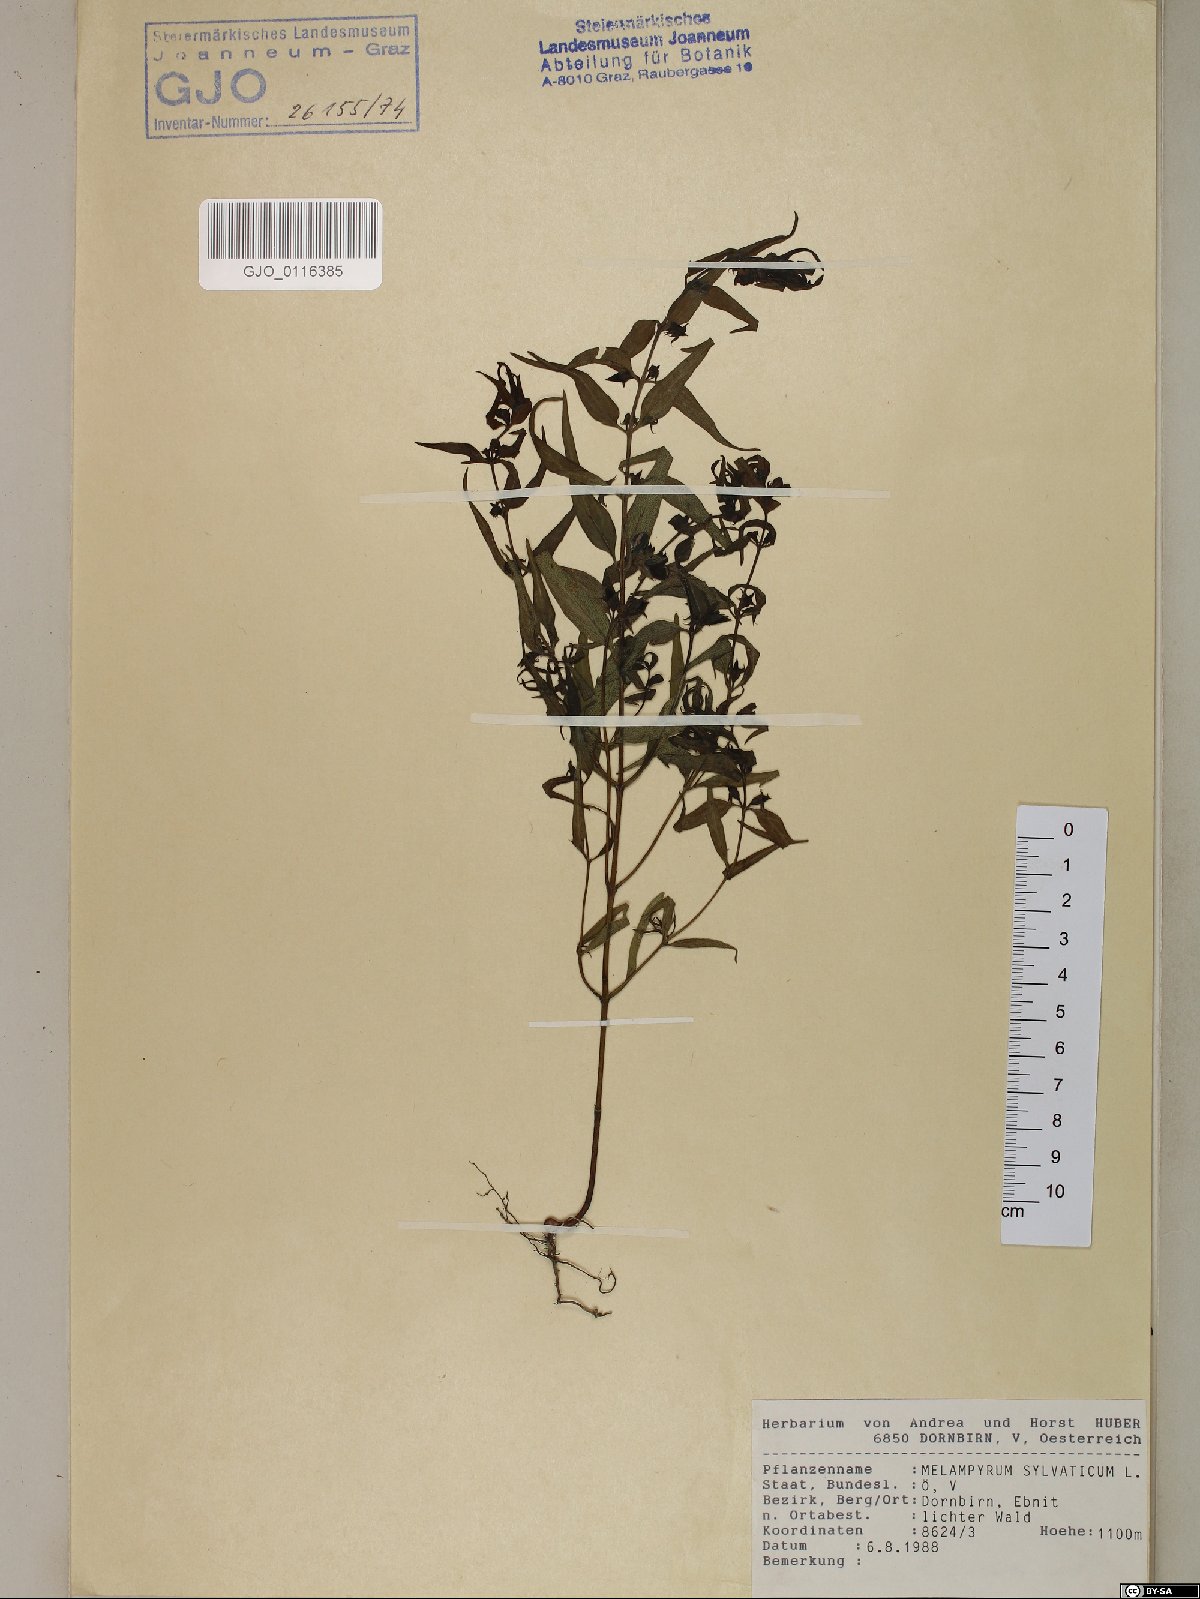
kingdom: Plantae
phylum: Tracheophyta
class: Magnoliopsida
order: Lamiales
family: Orobanchaceae
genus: Melampyrum
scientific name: Melampyrum sylvaticum
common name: Small cow-wheat
